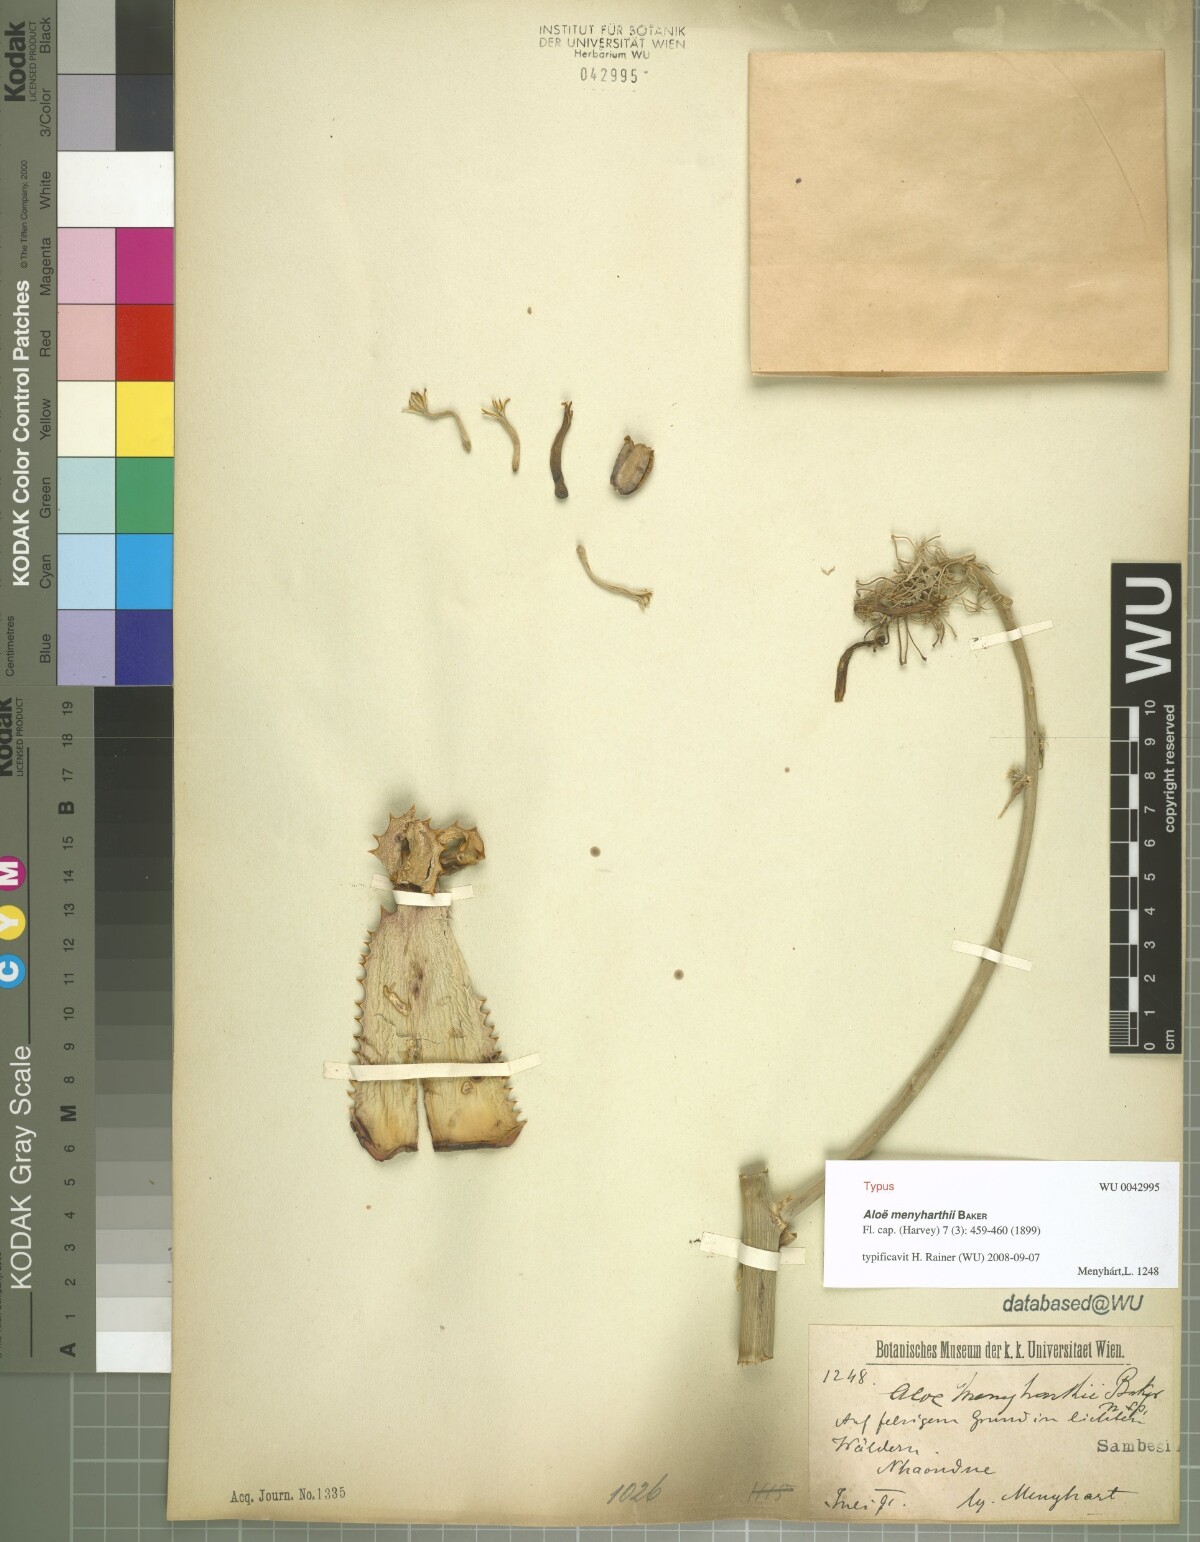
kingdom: Plantae
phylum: Tracheophyta
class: Liliopsida
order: Asparagales
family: Asphodelaceae
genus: Aloe
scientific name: Aloe menyharthii
